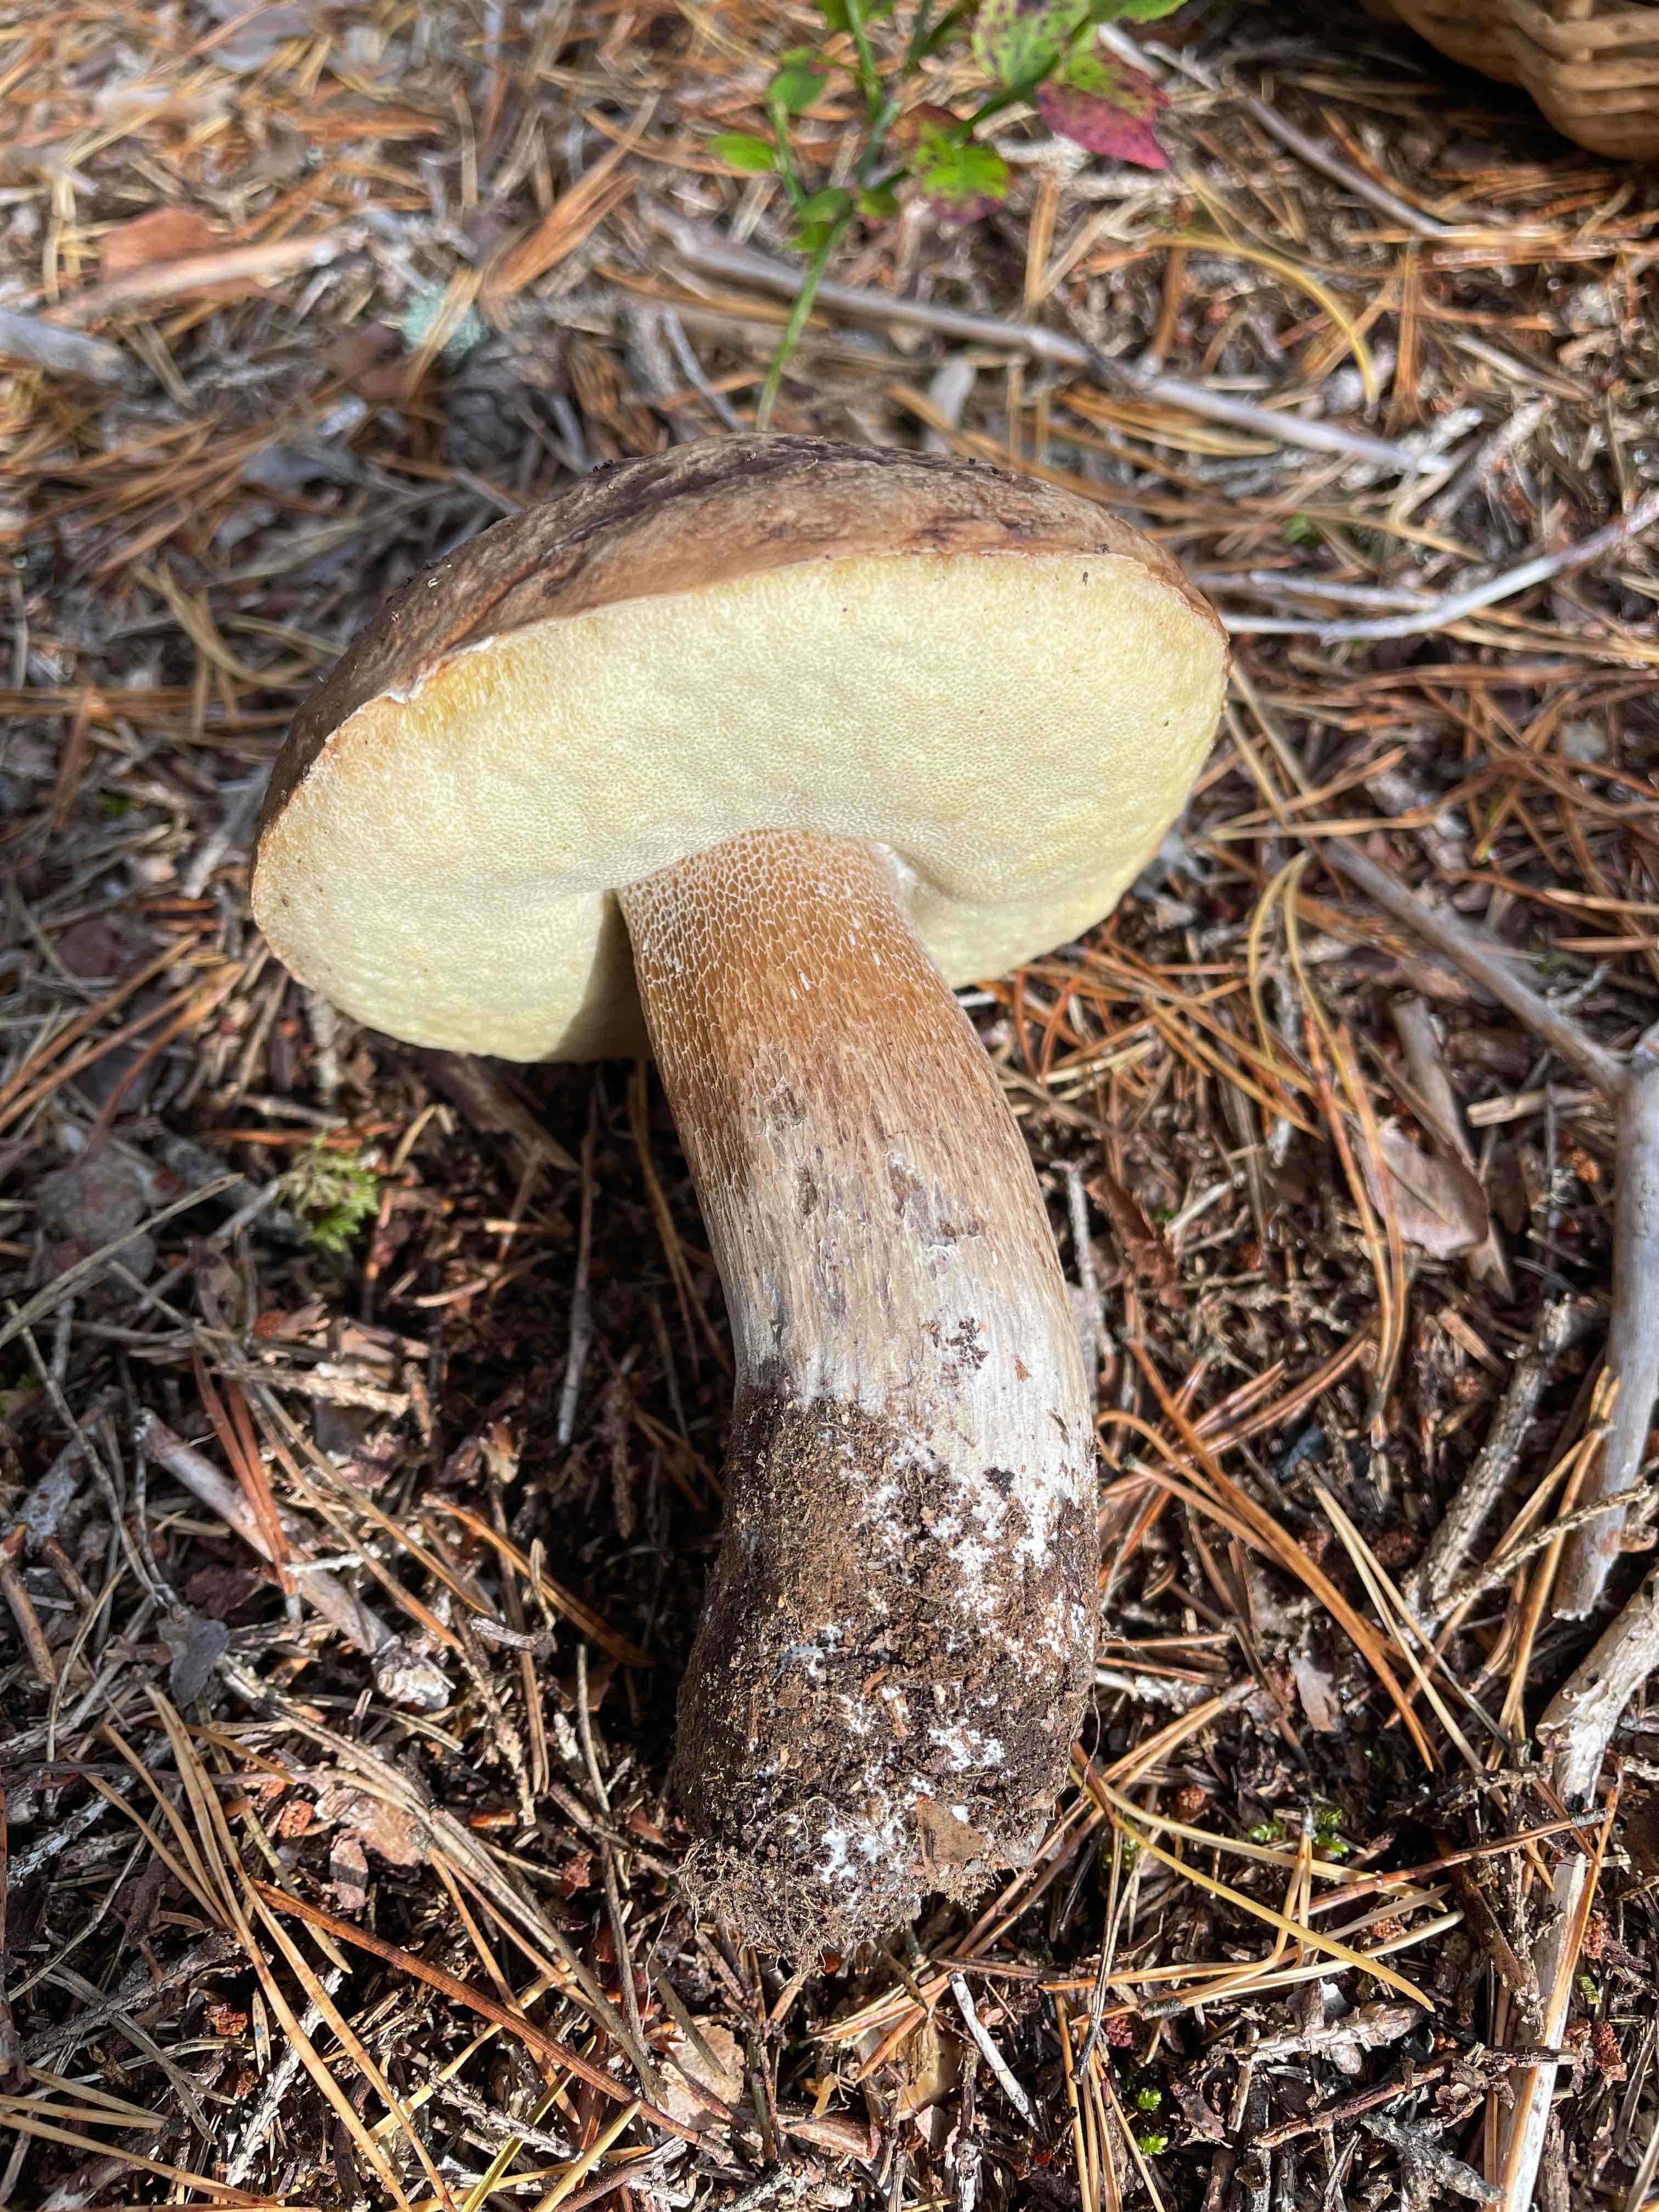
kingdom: Fungi
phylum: Basidiomycota
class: Agaricomycetes
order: Boletales
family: Boletaceae
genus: Boletus
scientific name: Boletus edulis
